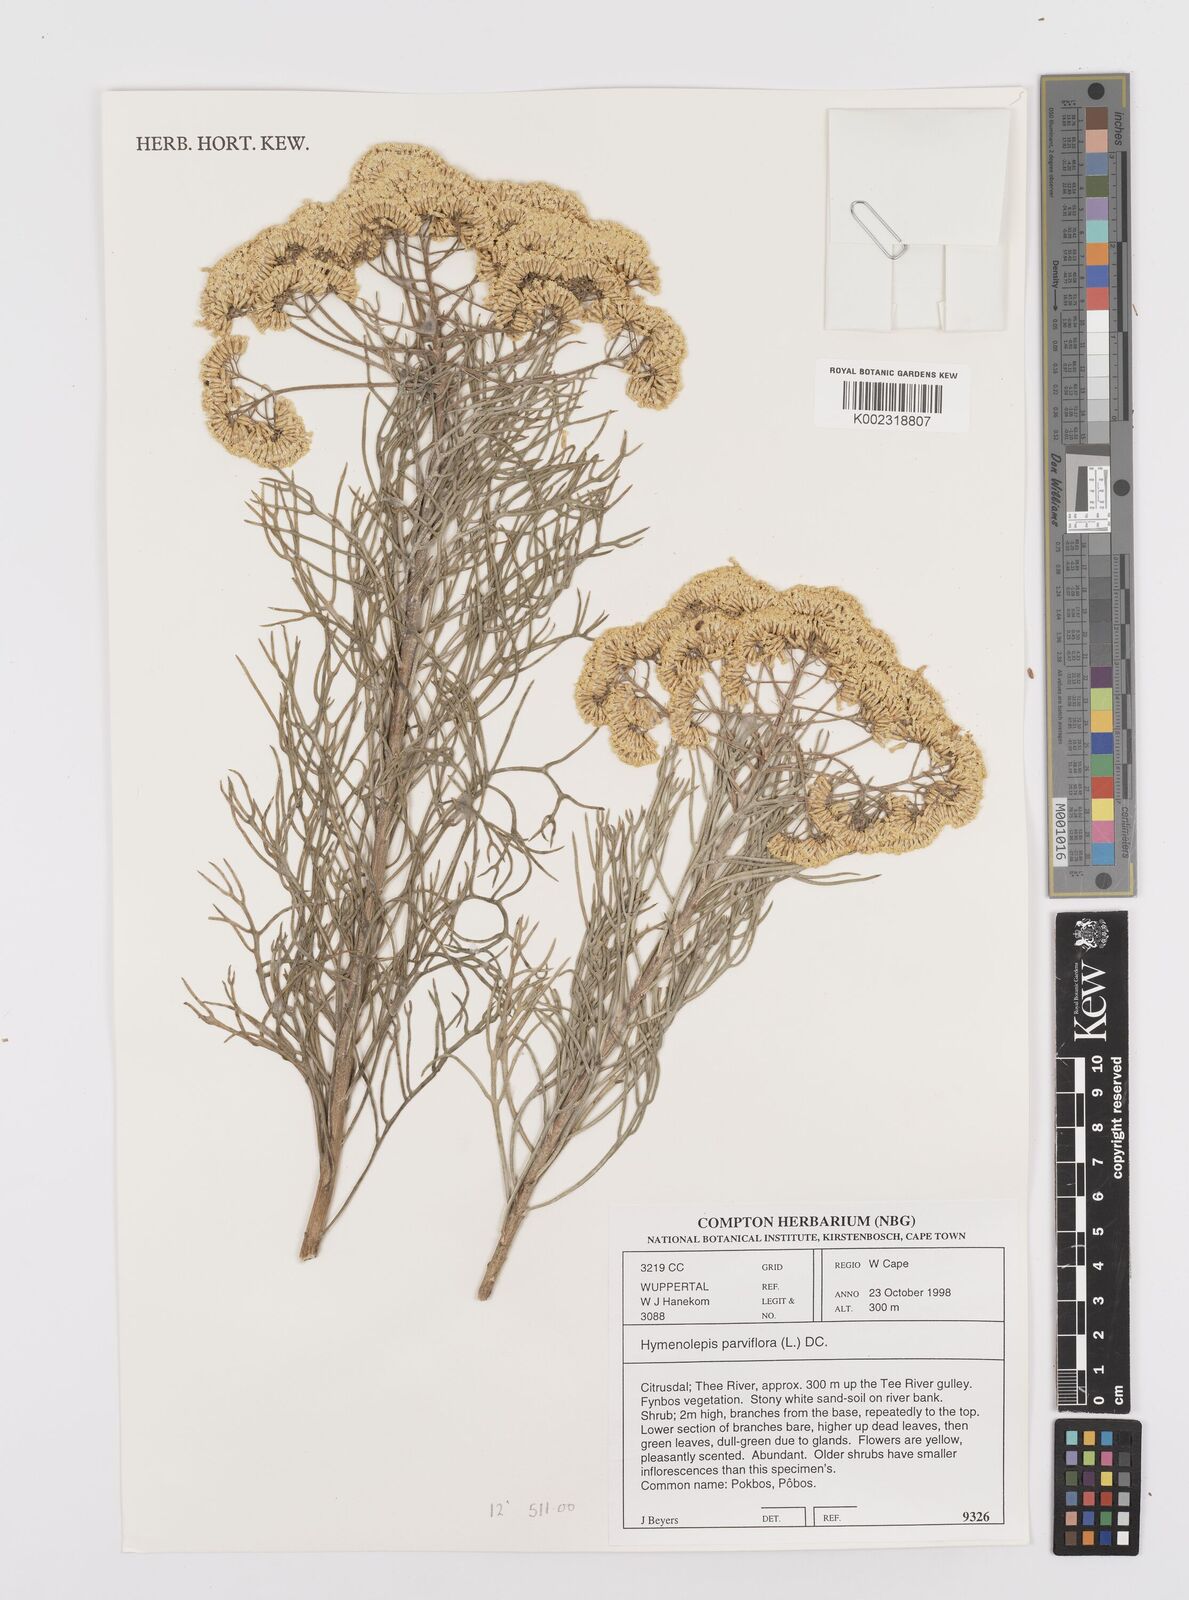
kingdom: Plantae
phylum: Tracheophyta
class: Magnoliopsida
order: Asterales
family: Asteraceae
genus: Hymenolepis
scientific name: Hymenolepis crithmifolia
